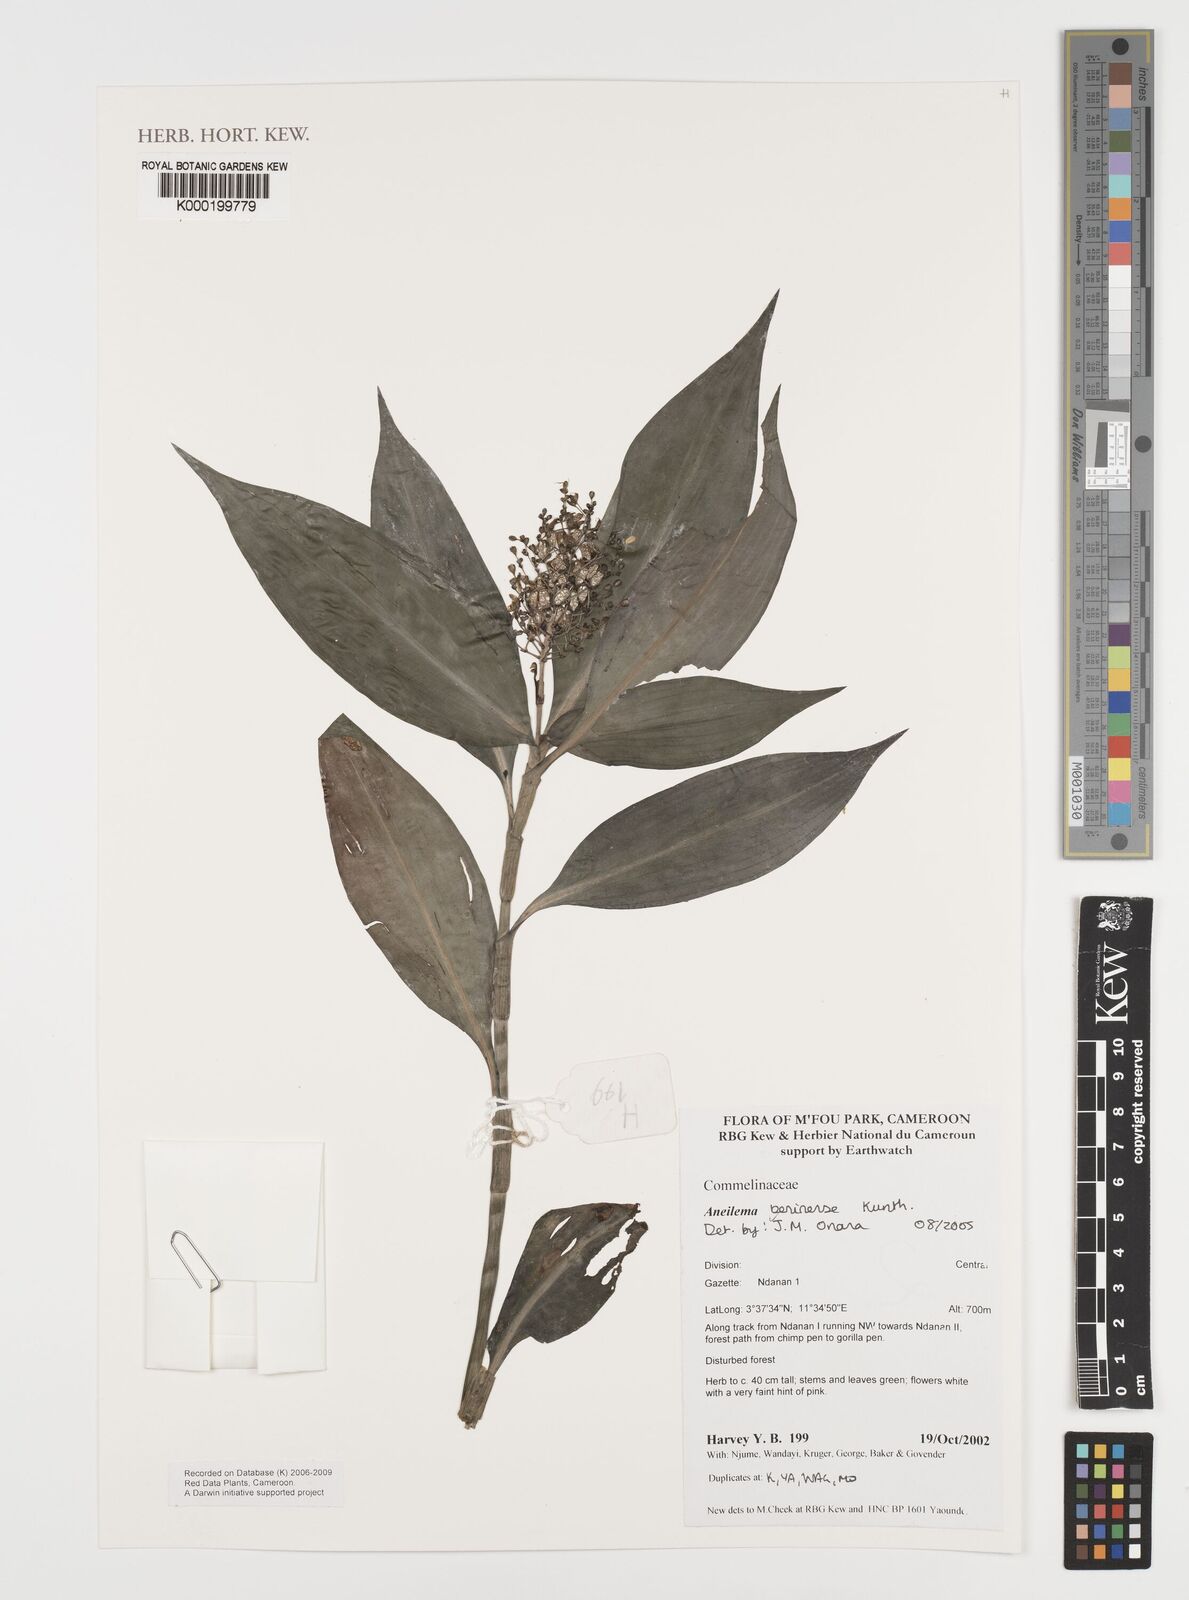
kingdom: Plantae
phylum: Tracheophyta
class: Liliopsida
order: Commelinales
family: Commelinaceae
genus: Aneilema
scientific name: Aneilema beniniense
